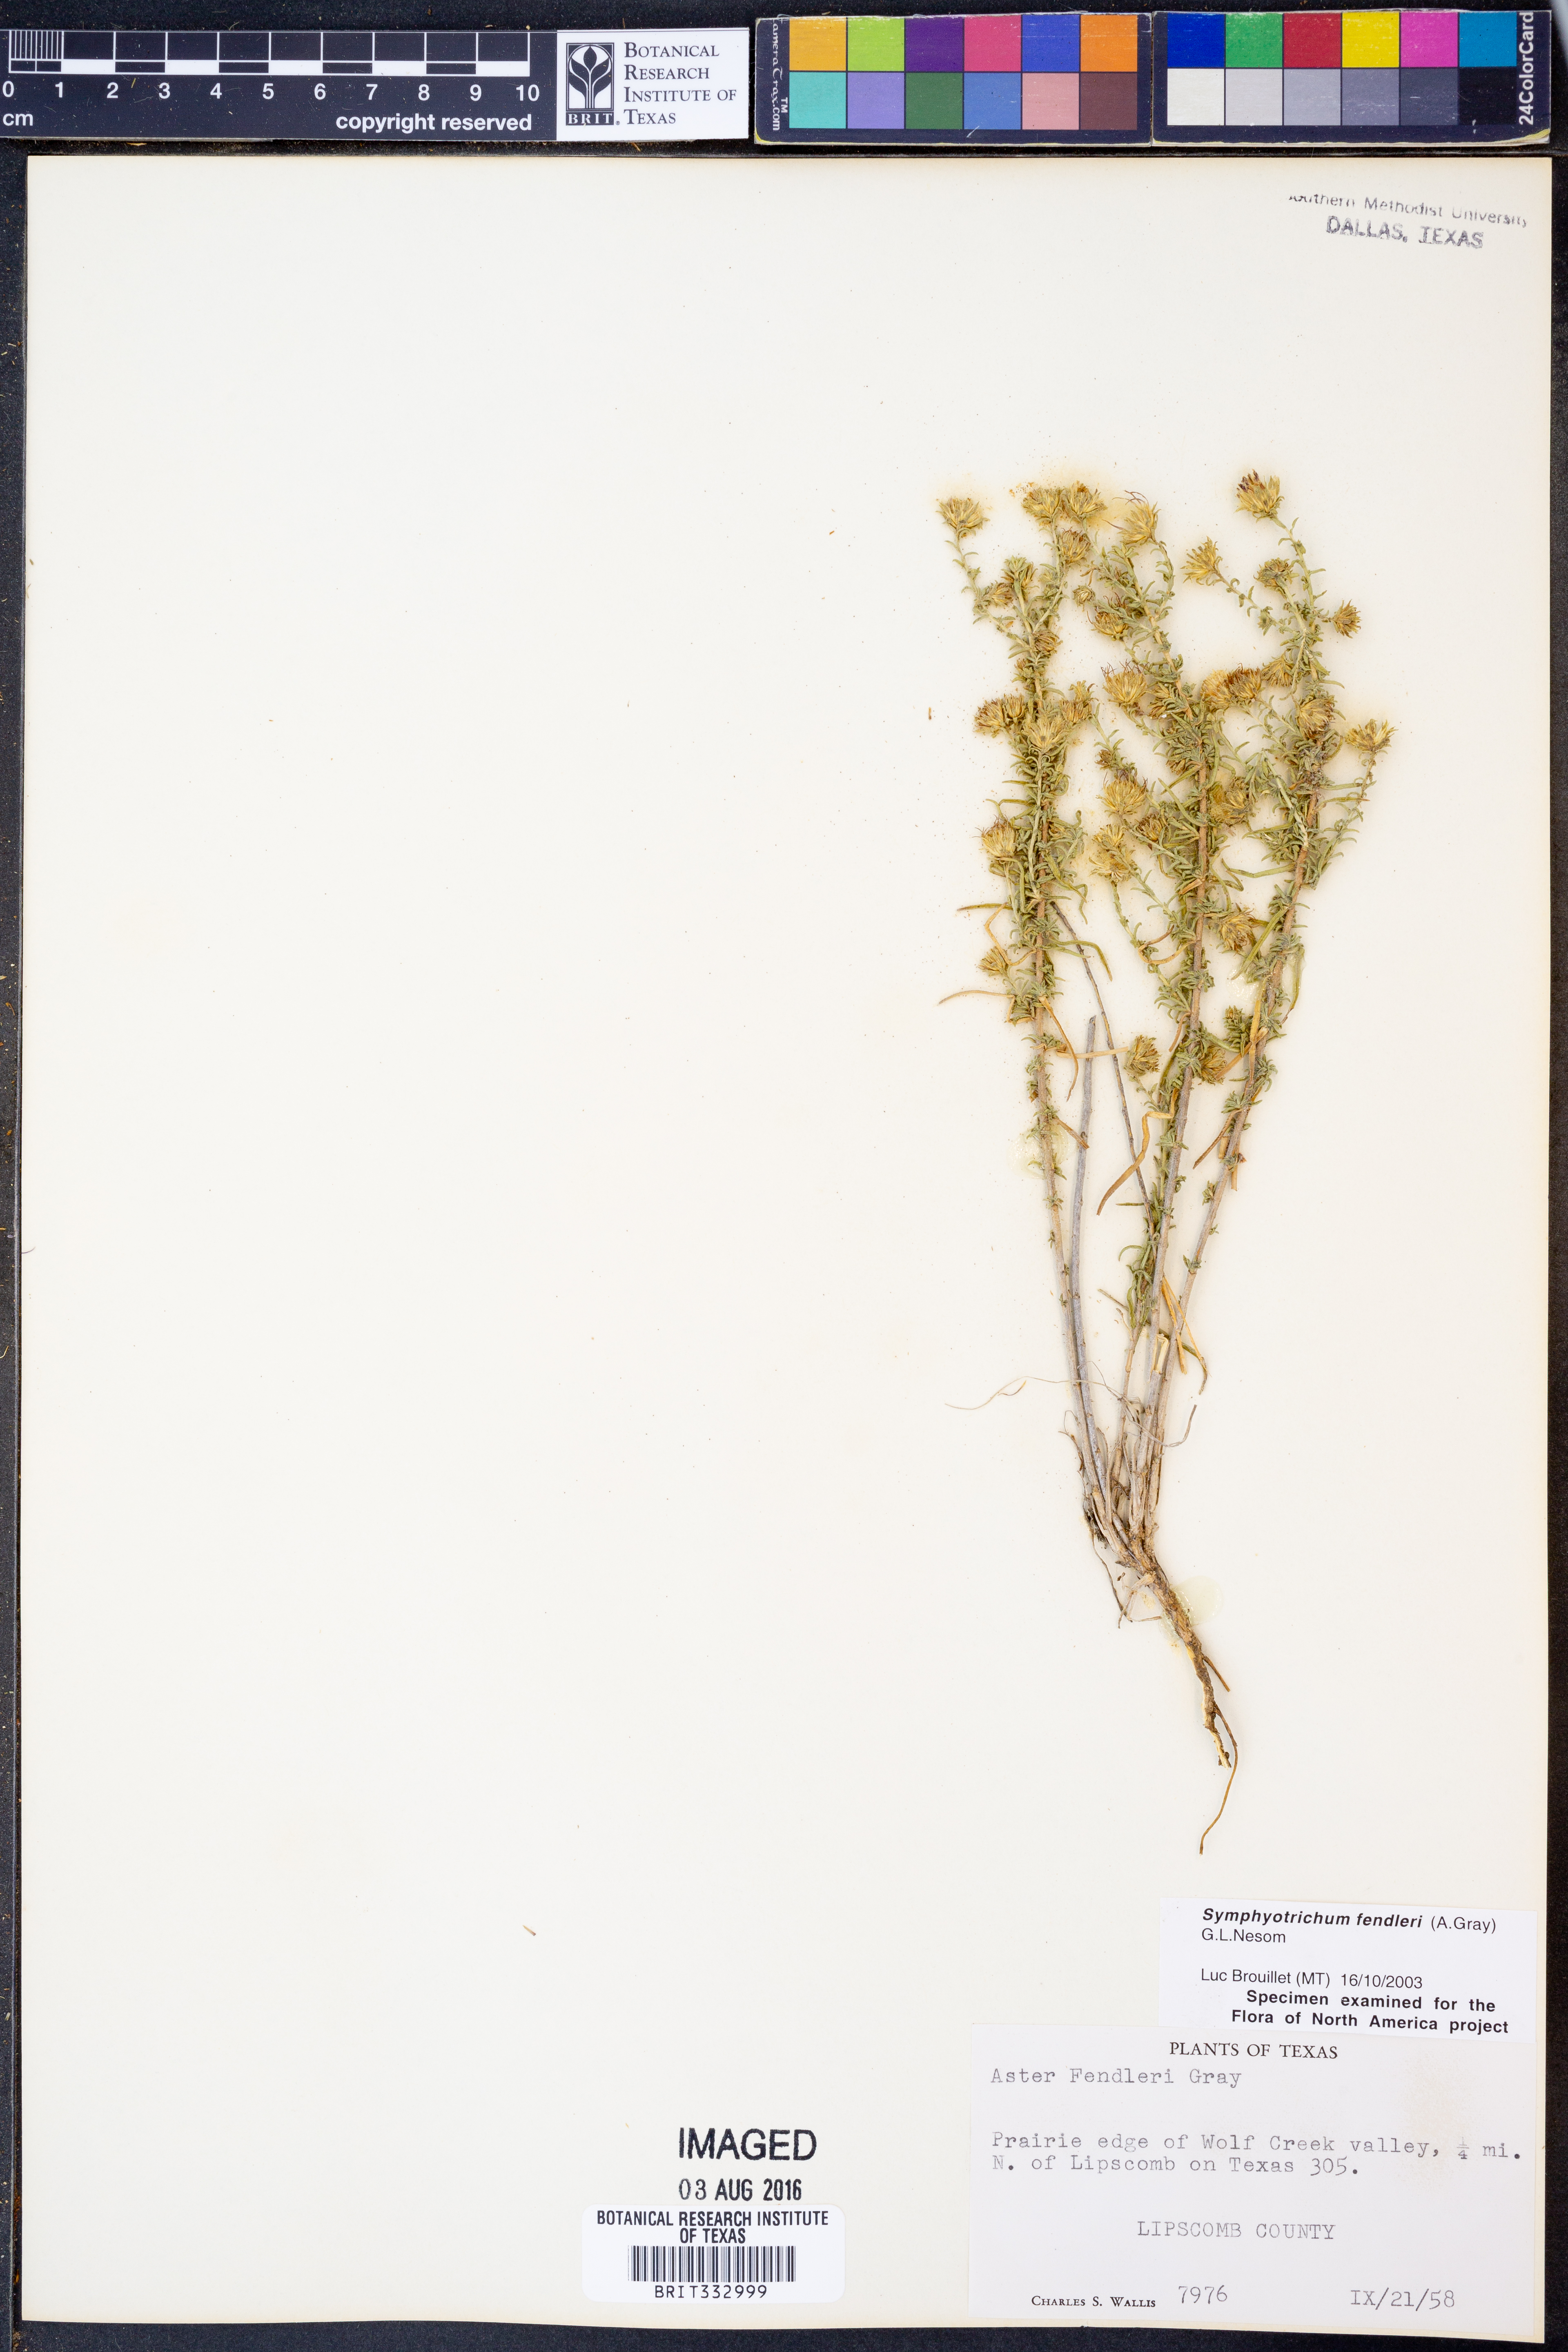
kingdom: Plantae
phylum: Tracheophyta
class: Magnoliopsida
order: Asterales
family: Asteraceae
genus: Symphyotrichum
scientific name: Symphyotrichum fendleri
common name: Fendler's aster
